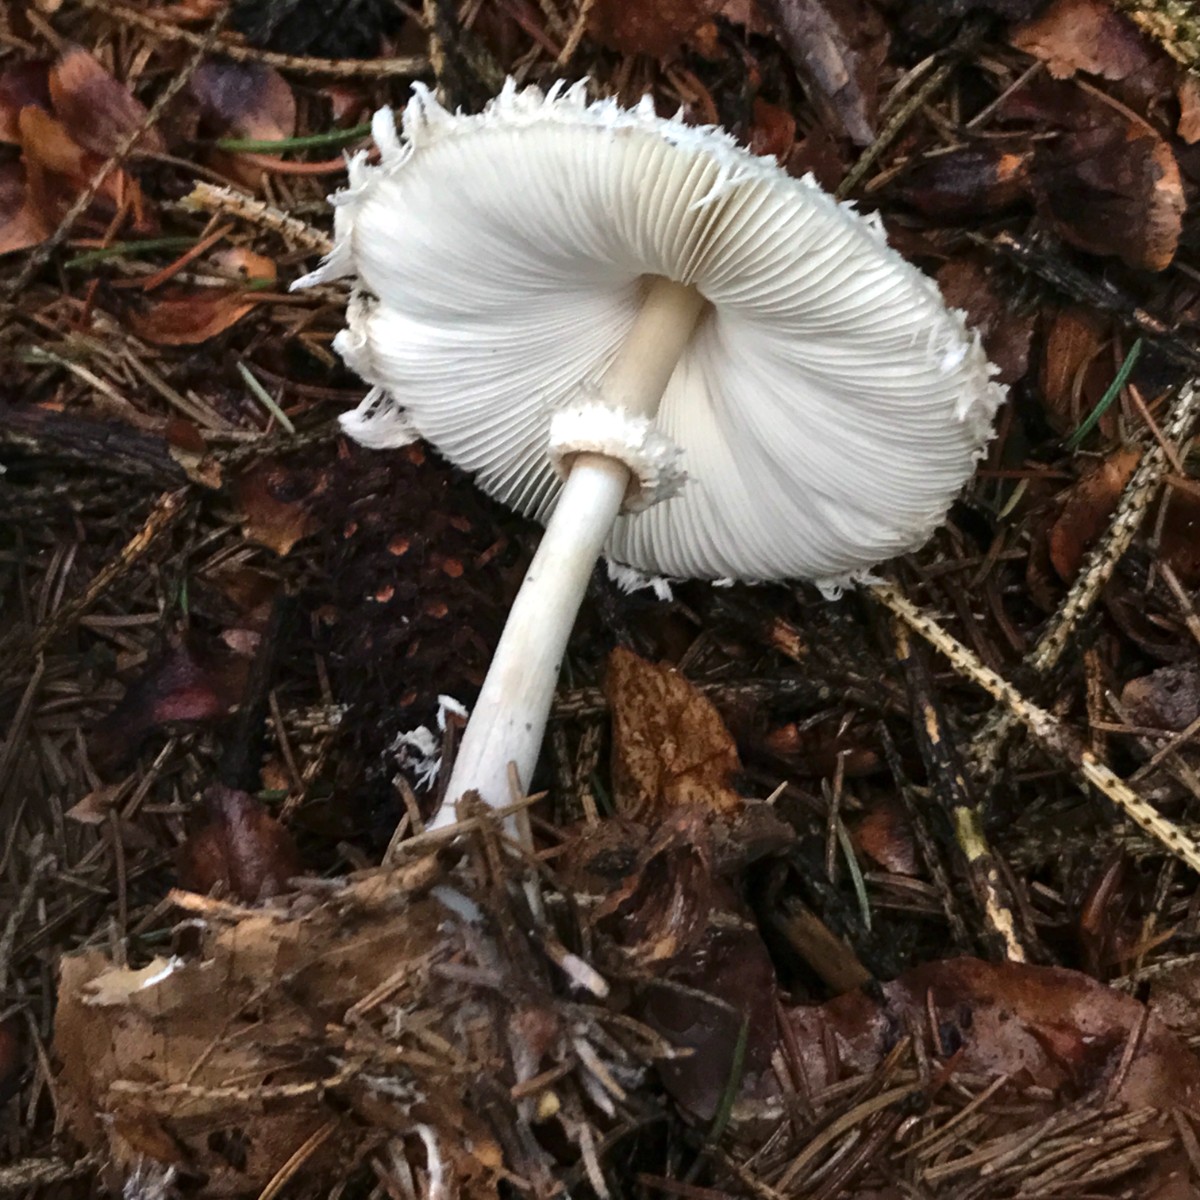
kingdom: Fungi
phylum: Basidiomycota
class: Agaricomycetes
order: Agaricales
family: Agaricaceae
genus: Leucoagaricus
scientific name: Leucoagaricus nympharum
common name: gran-silkehat
